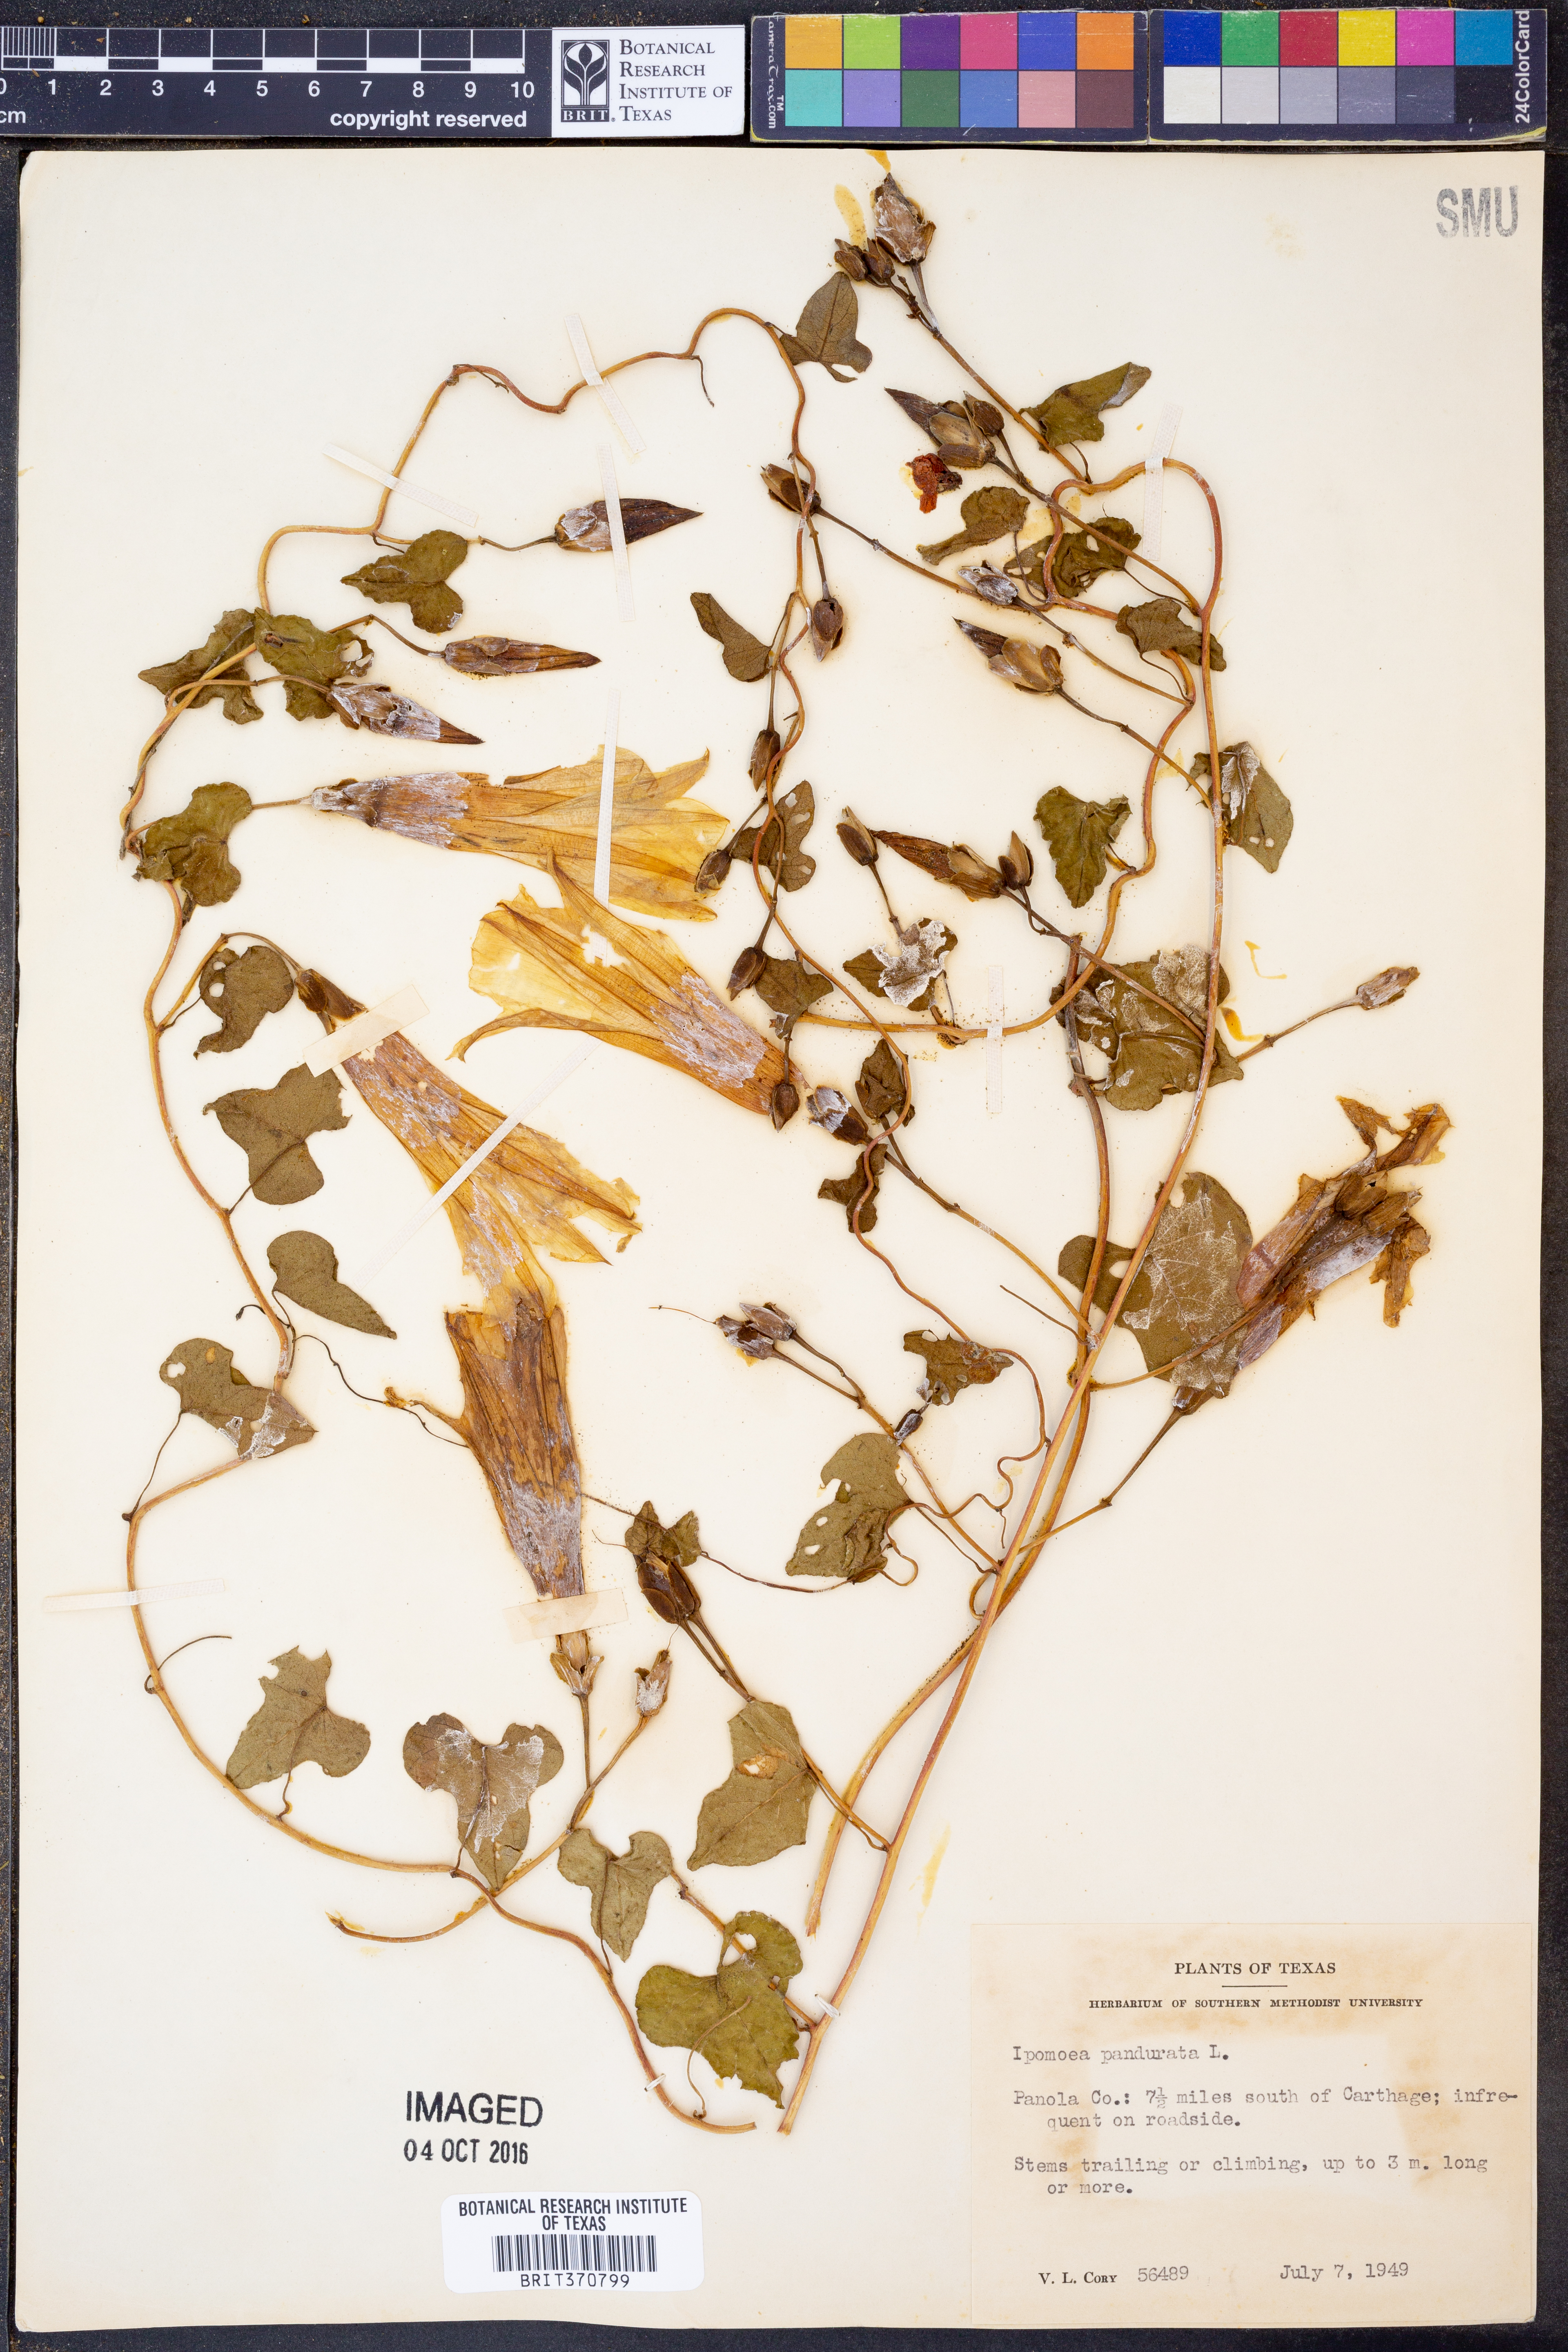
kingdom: Plantae
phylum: Tracheophyta
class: Magnoliopsida
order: Solanales
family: Convolvulaceae
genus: Ipomoea
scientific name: Ipomoea pandurata
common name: Man-of-the-earth
